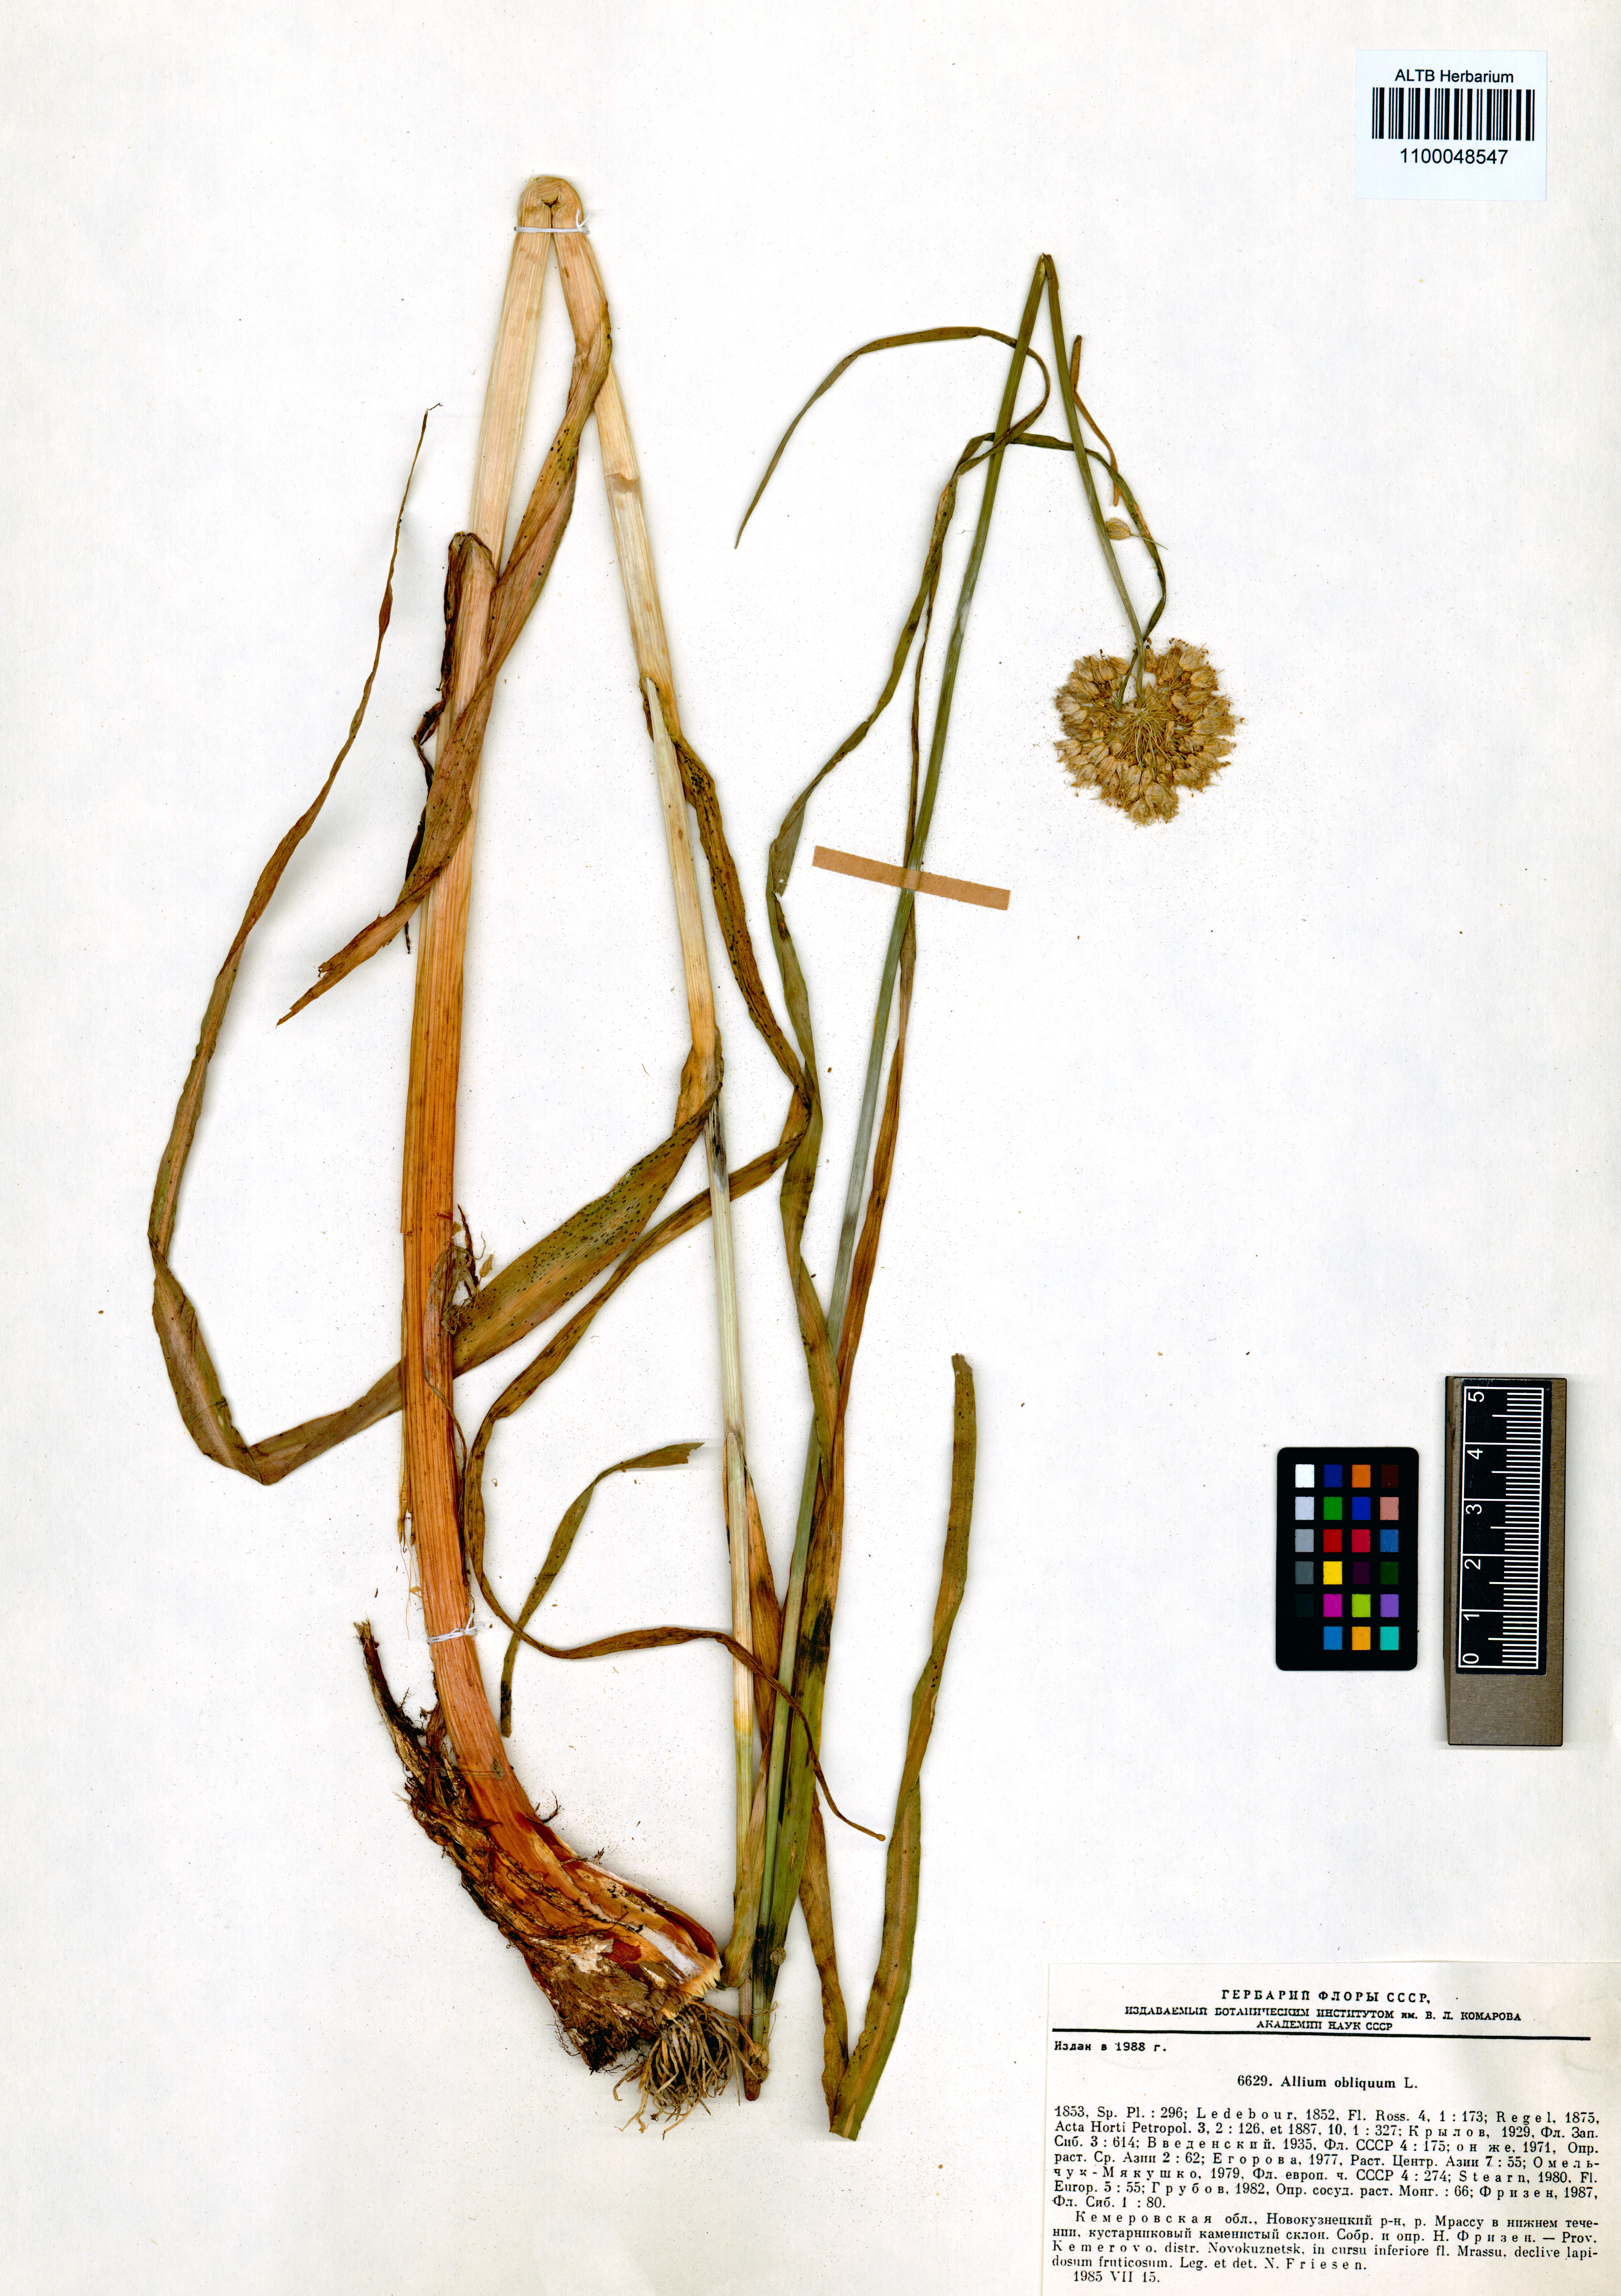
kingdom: Plantae
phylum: Tracheophyta
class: Liliopsida
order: Asparagales
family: Amaryllidaceae
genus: Allium
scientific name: Allium obliquum
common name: Oblique onion
